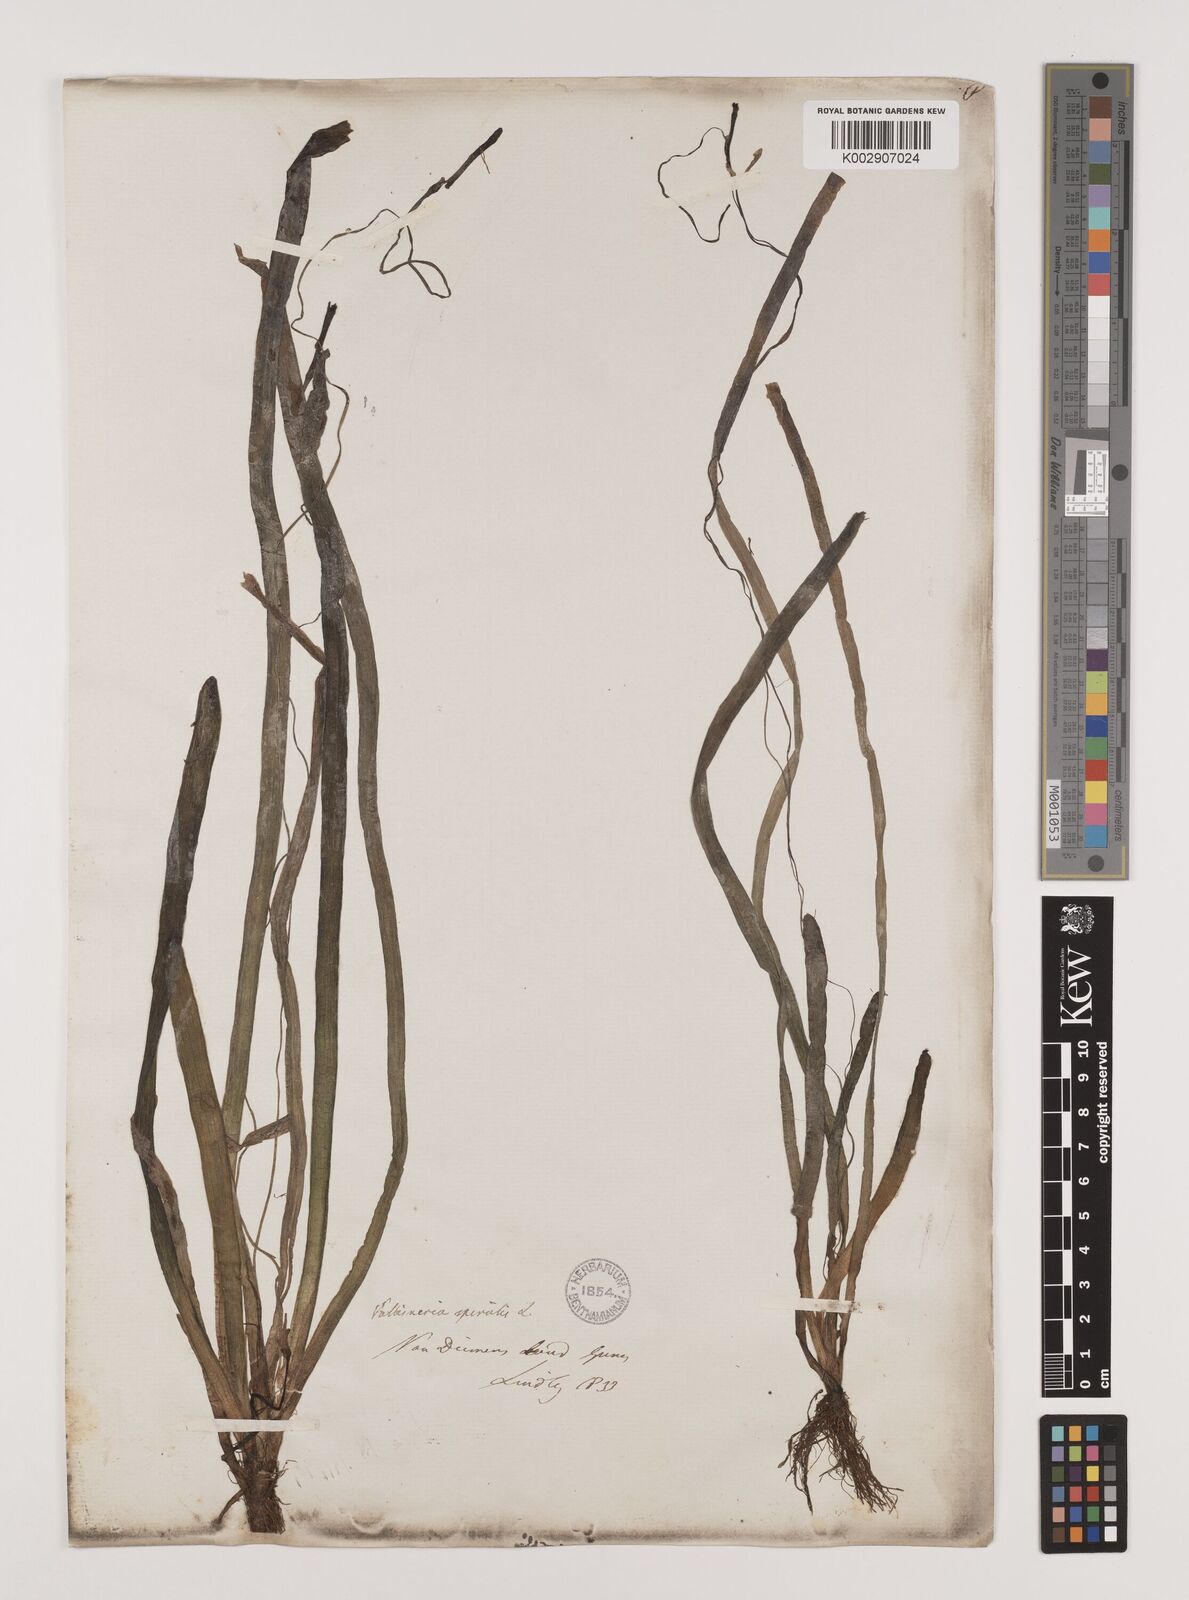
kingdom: Plantae
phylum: Tracheophyta
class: Liliopsida
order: Alismatales
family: Hydrocharitaceae
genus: Vallisneria
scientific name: Vallisneria spiralis
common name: Tapegrass
